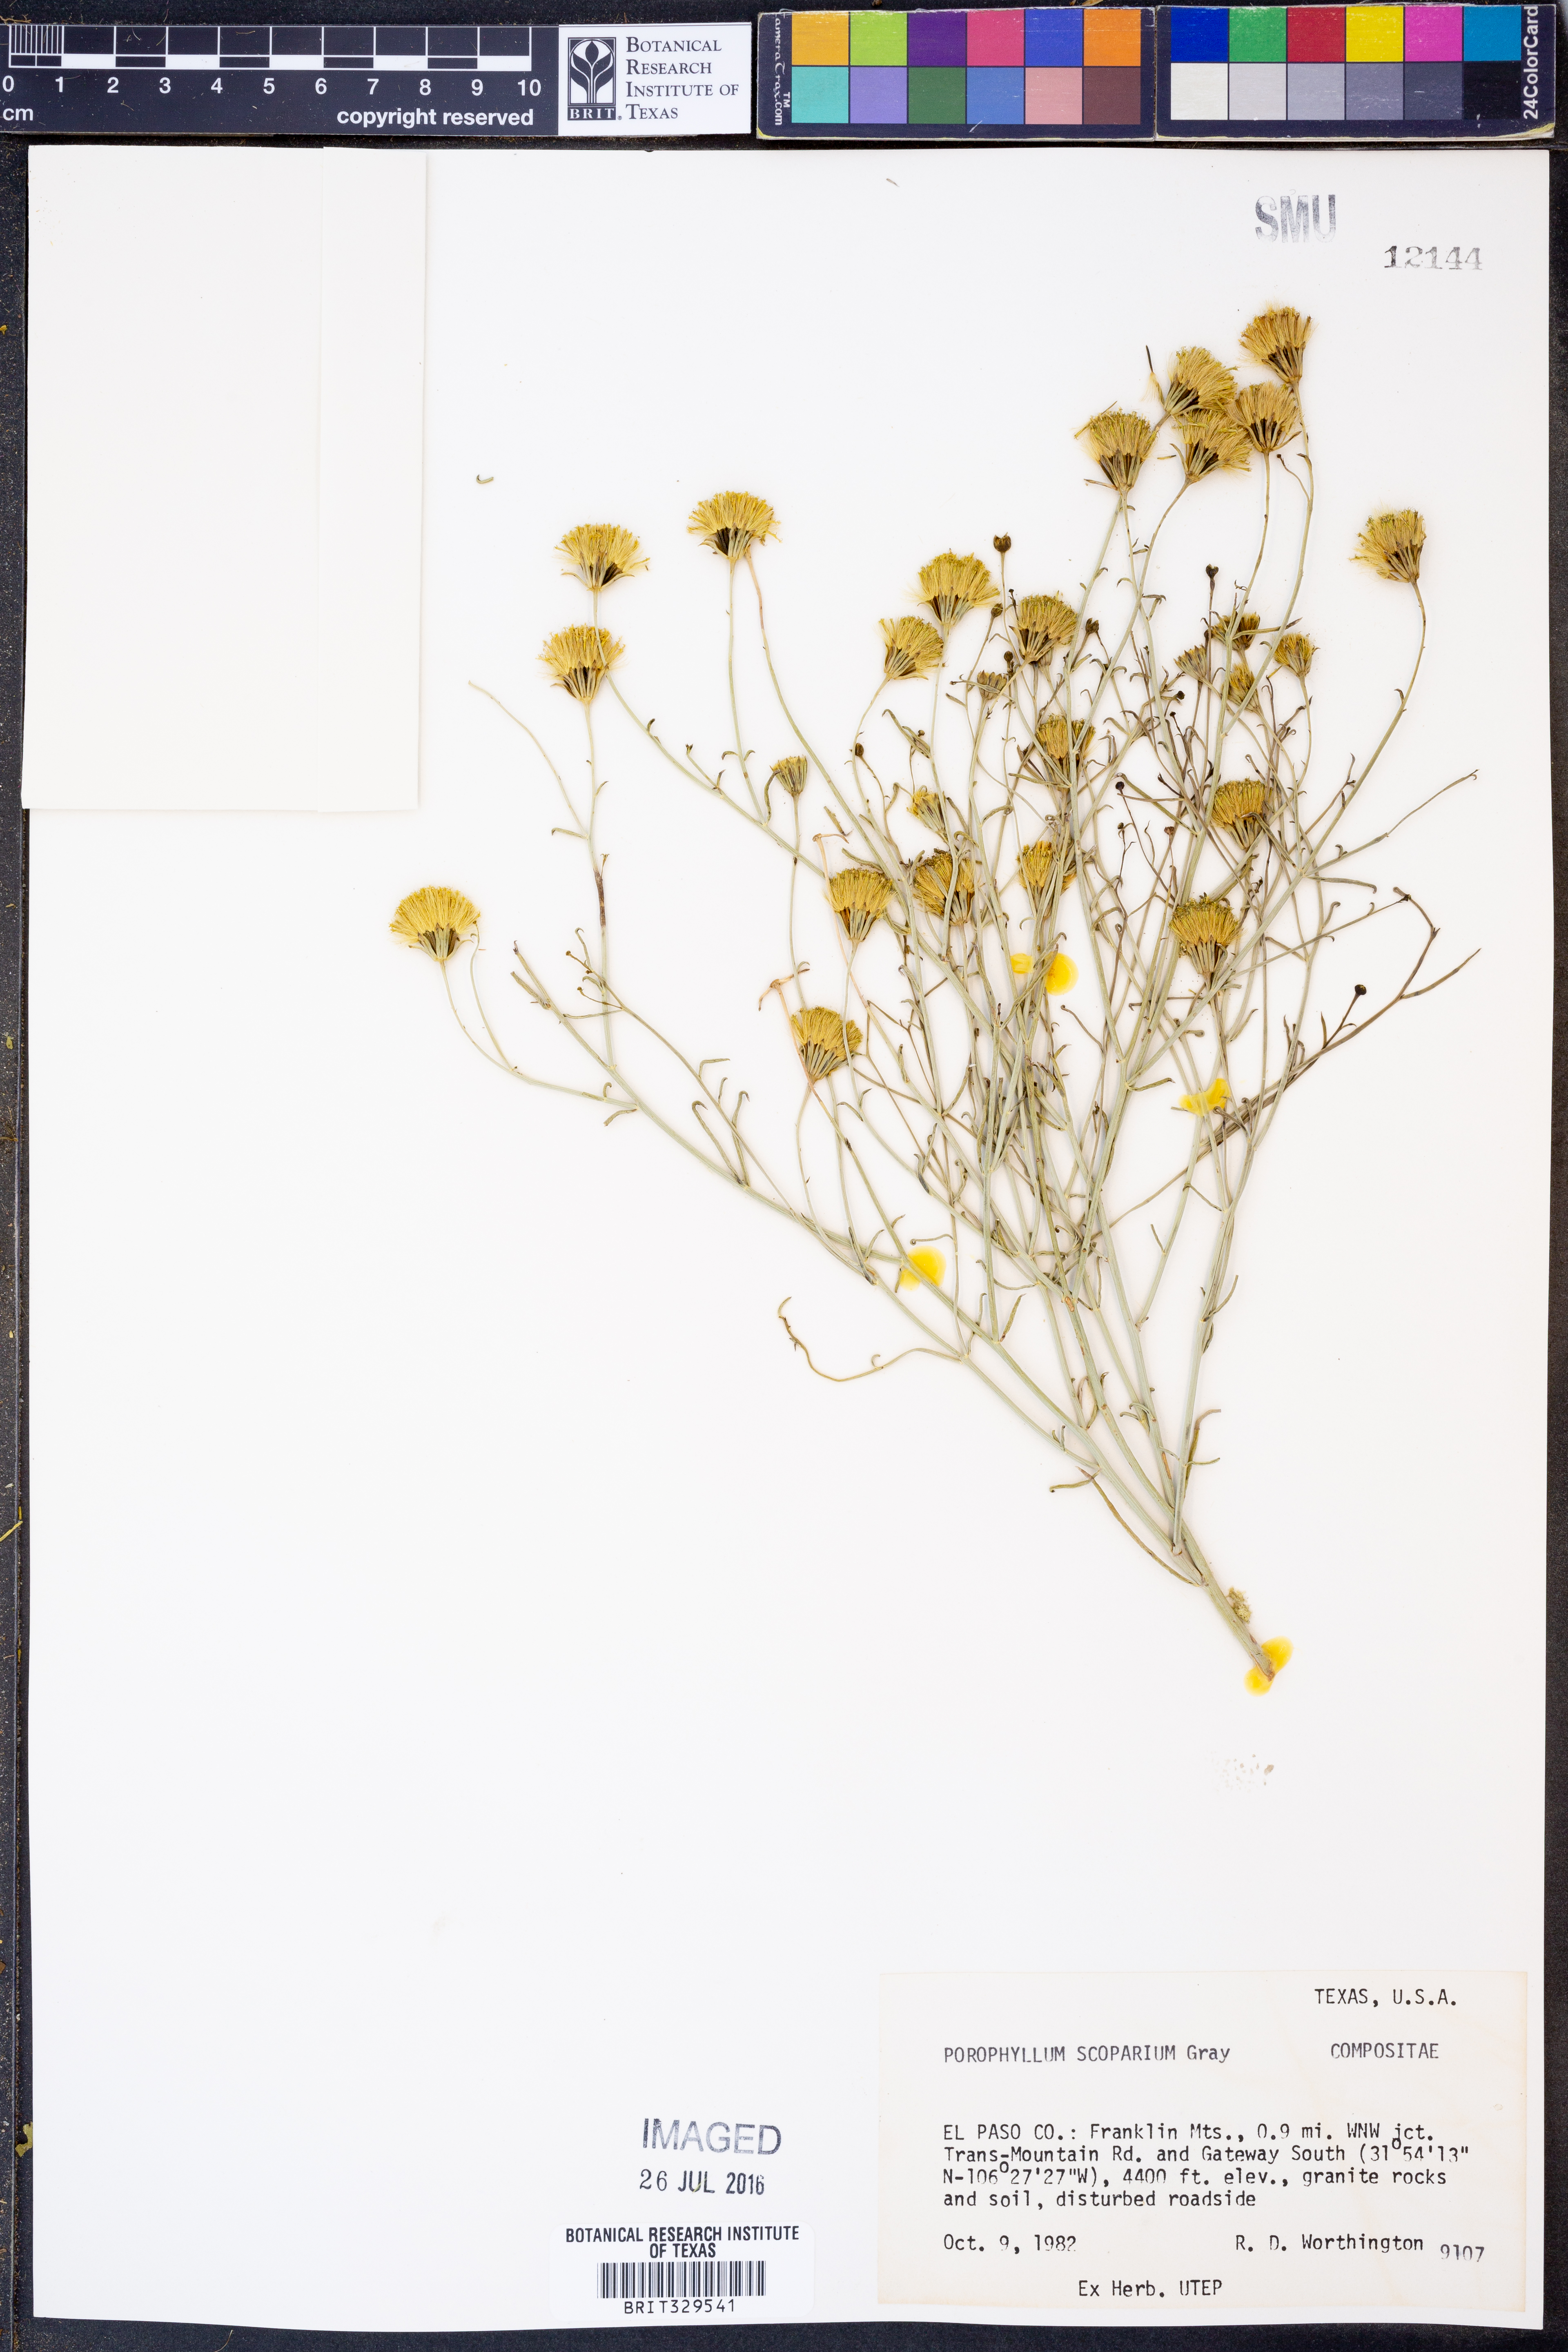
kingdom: Plantae
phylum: Tracheophyta
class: Magnoliopsida
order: Asterales
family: Asteraceae
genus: Porophyllum
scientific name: Porophyllum scoparium
